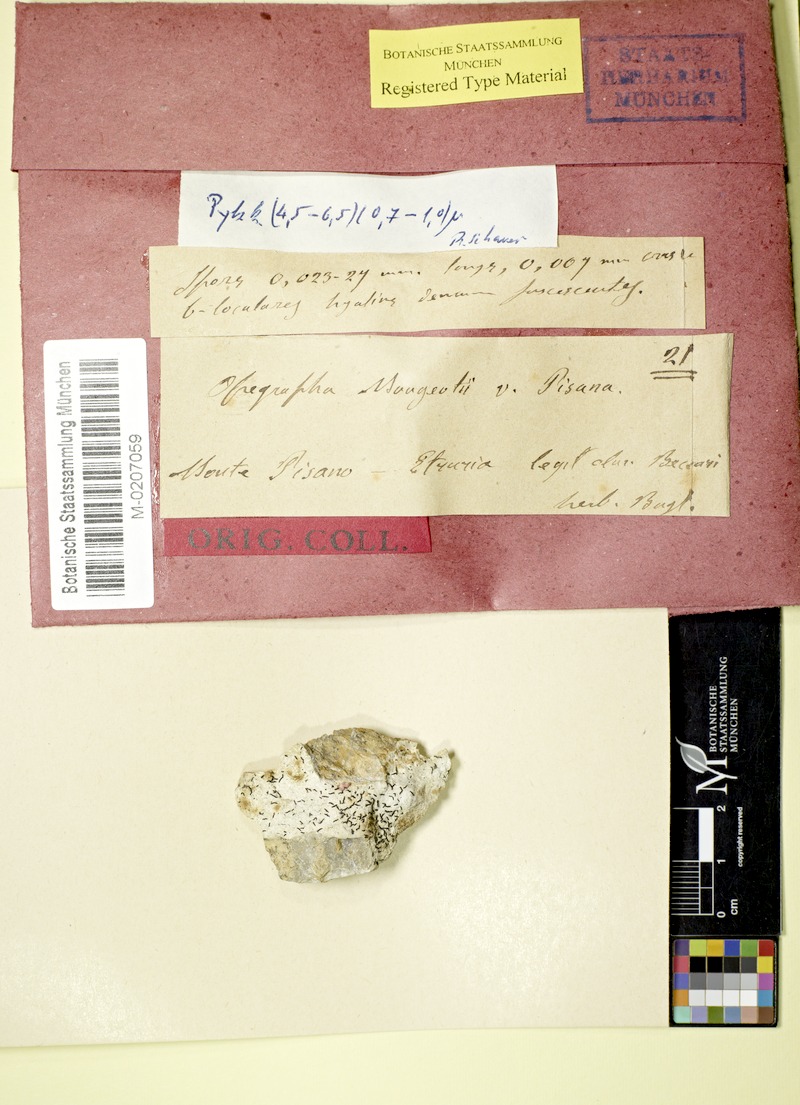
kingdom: Fungi
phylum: Ascomycota
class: Arthoniomycetes
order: Arthoniales
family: Lecanographaceae
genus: Alyxoria
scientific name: Alyxoria varia
